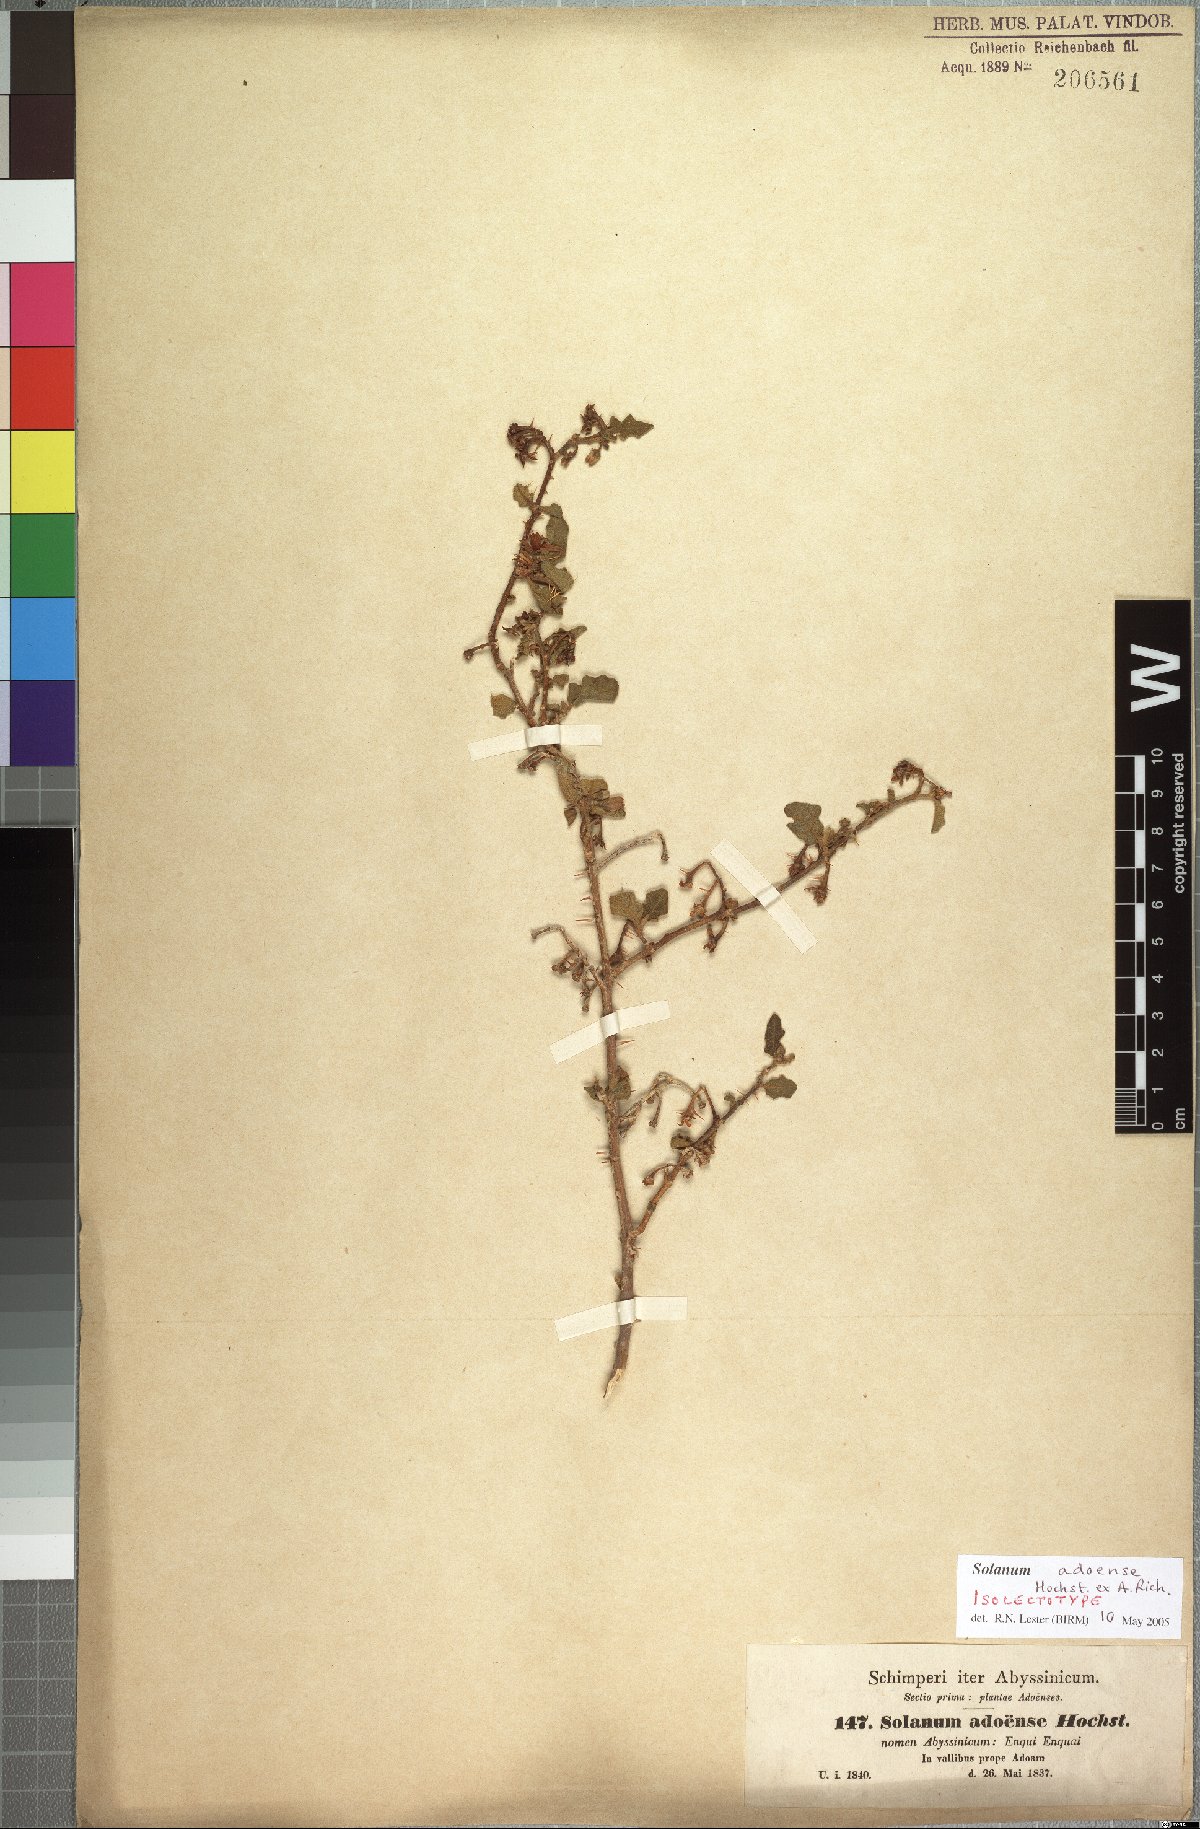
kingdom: Plantae
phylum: Tracheophyta
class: Magnoliopsida
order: Solanales
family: Solanaceae
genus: Solanum
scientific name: Solanum adoense
